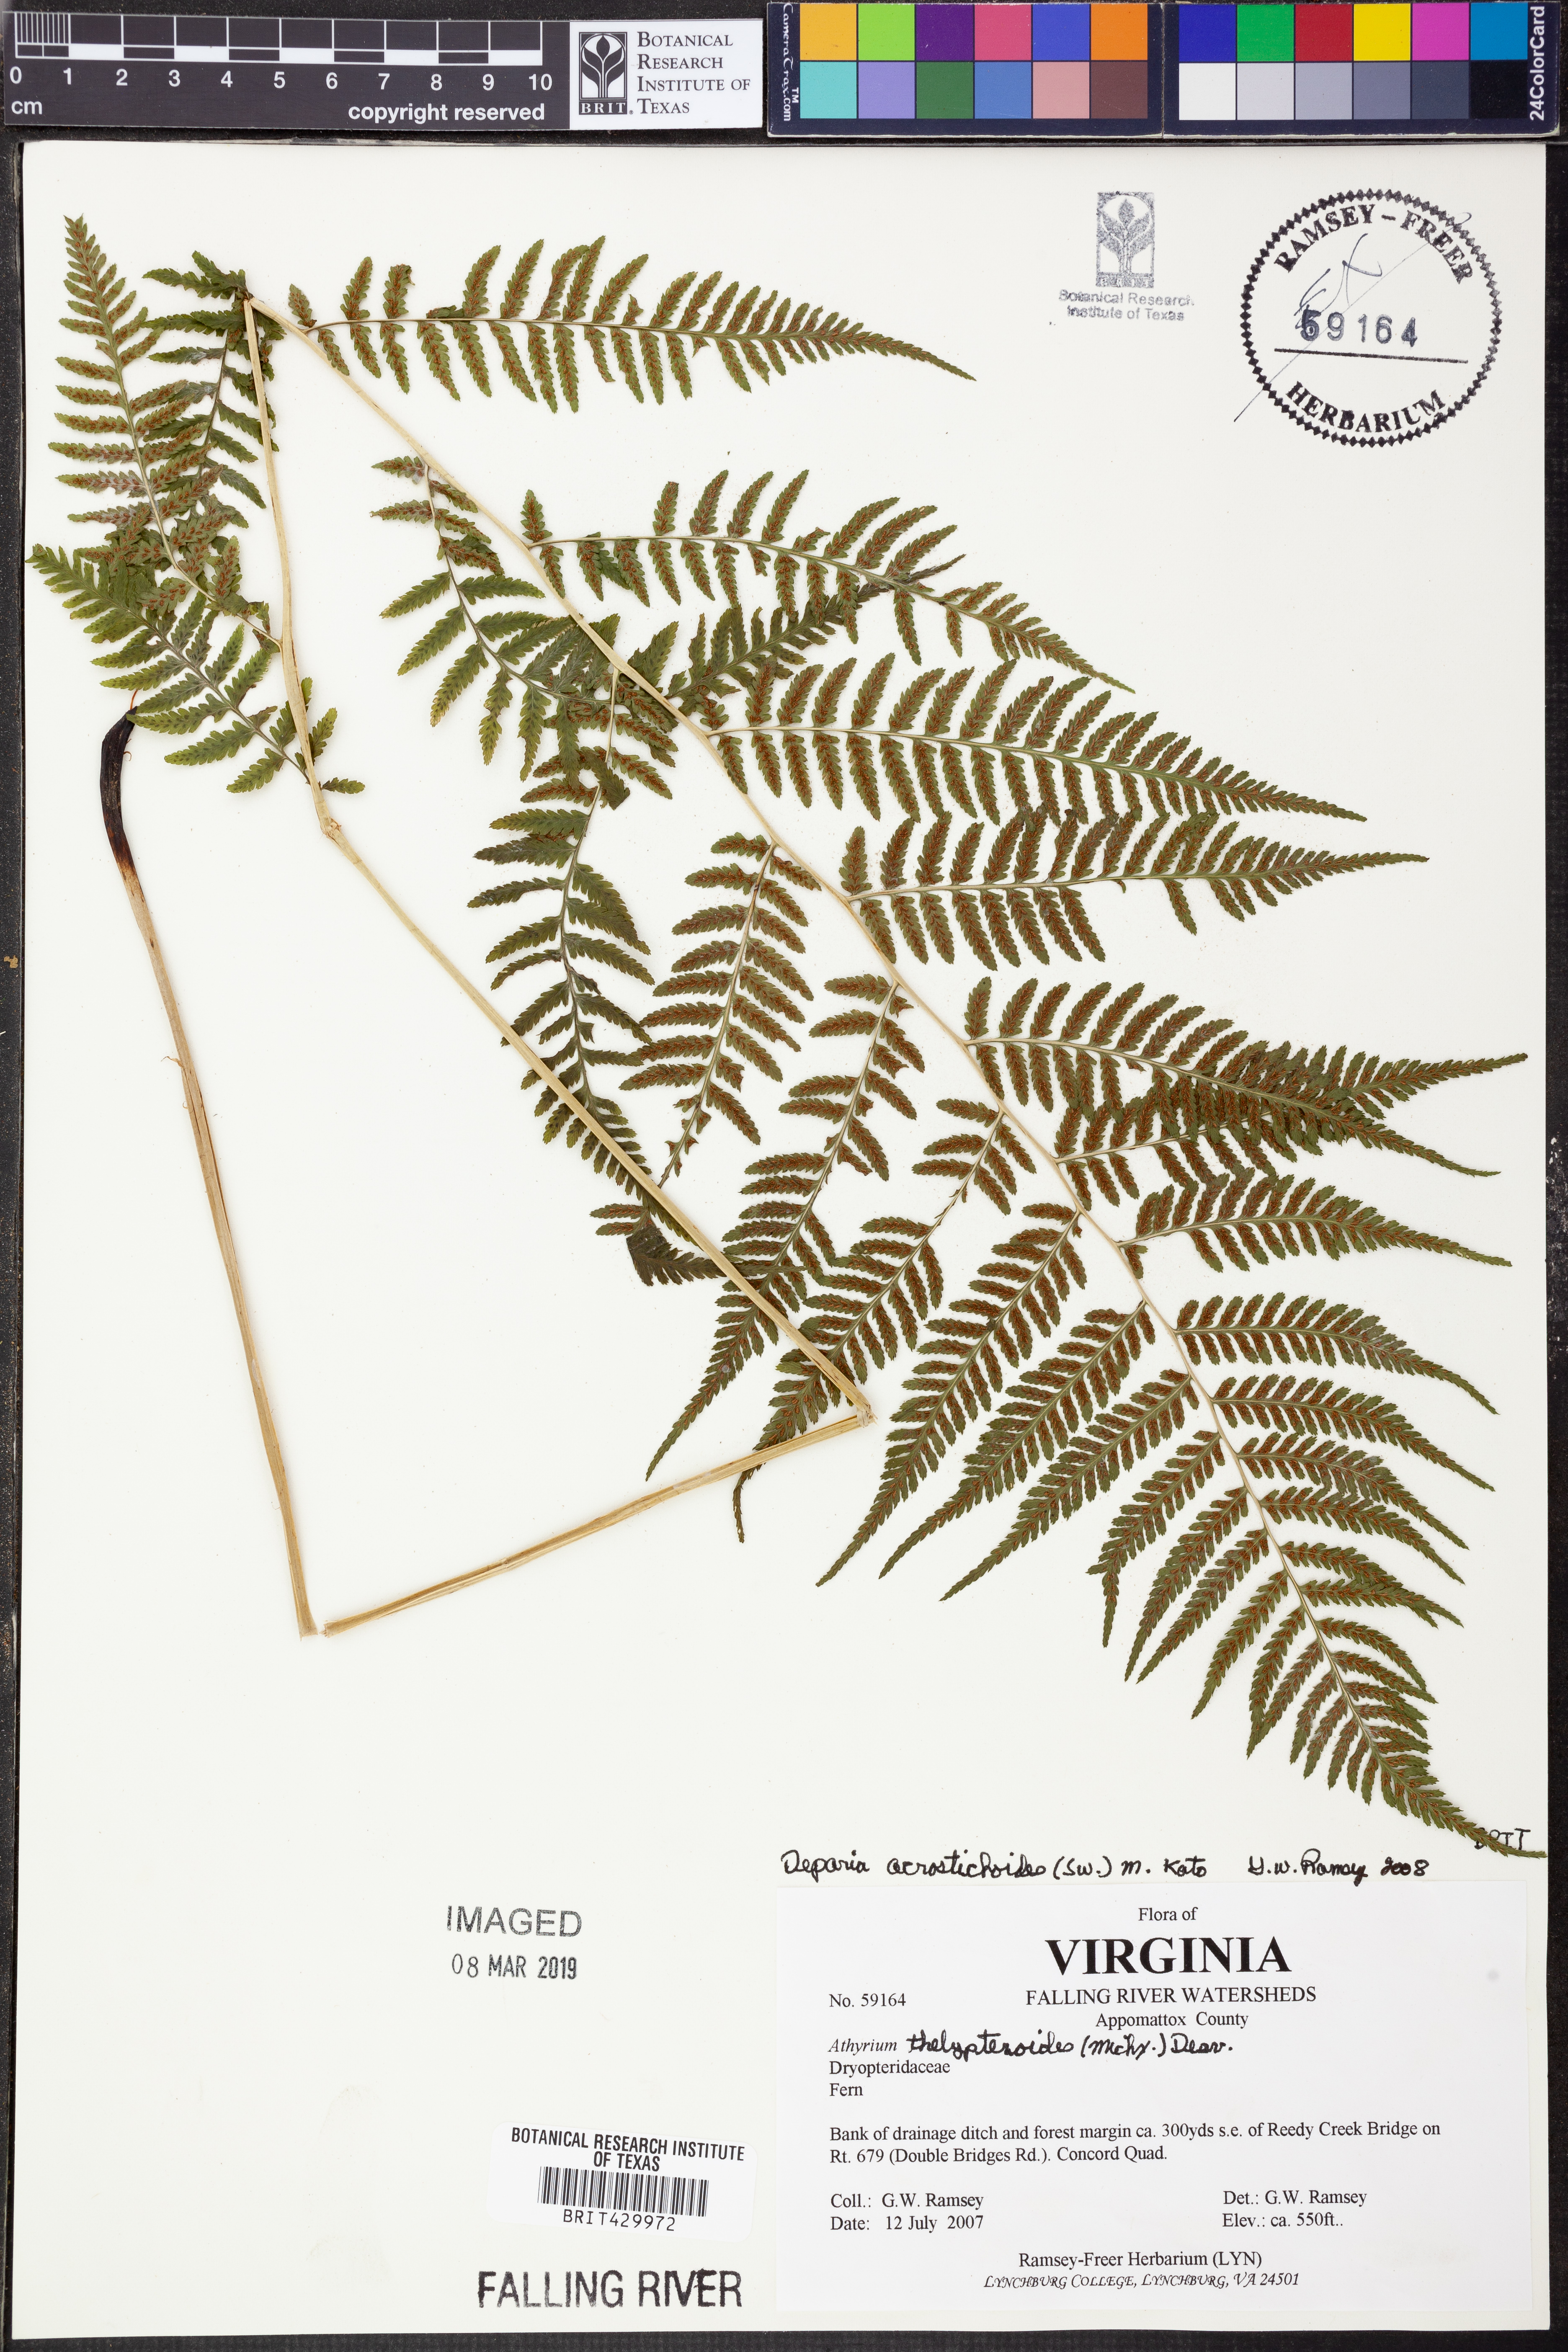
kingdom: Plantae
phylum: Tracheophyta
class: Polypodiopsida
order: Polypodiales
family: Athyriaceae
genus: Deparia
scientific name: Deparia acrostichoides
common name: Silver false spleenwort
